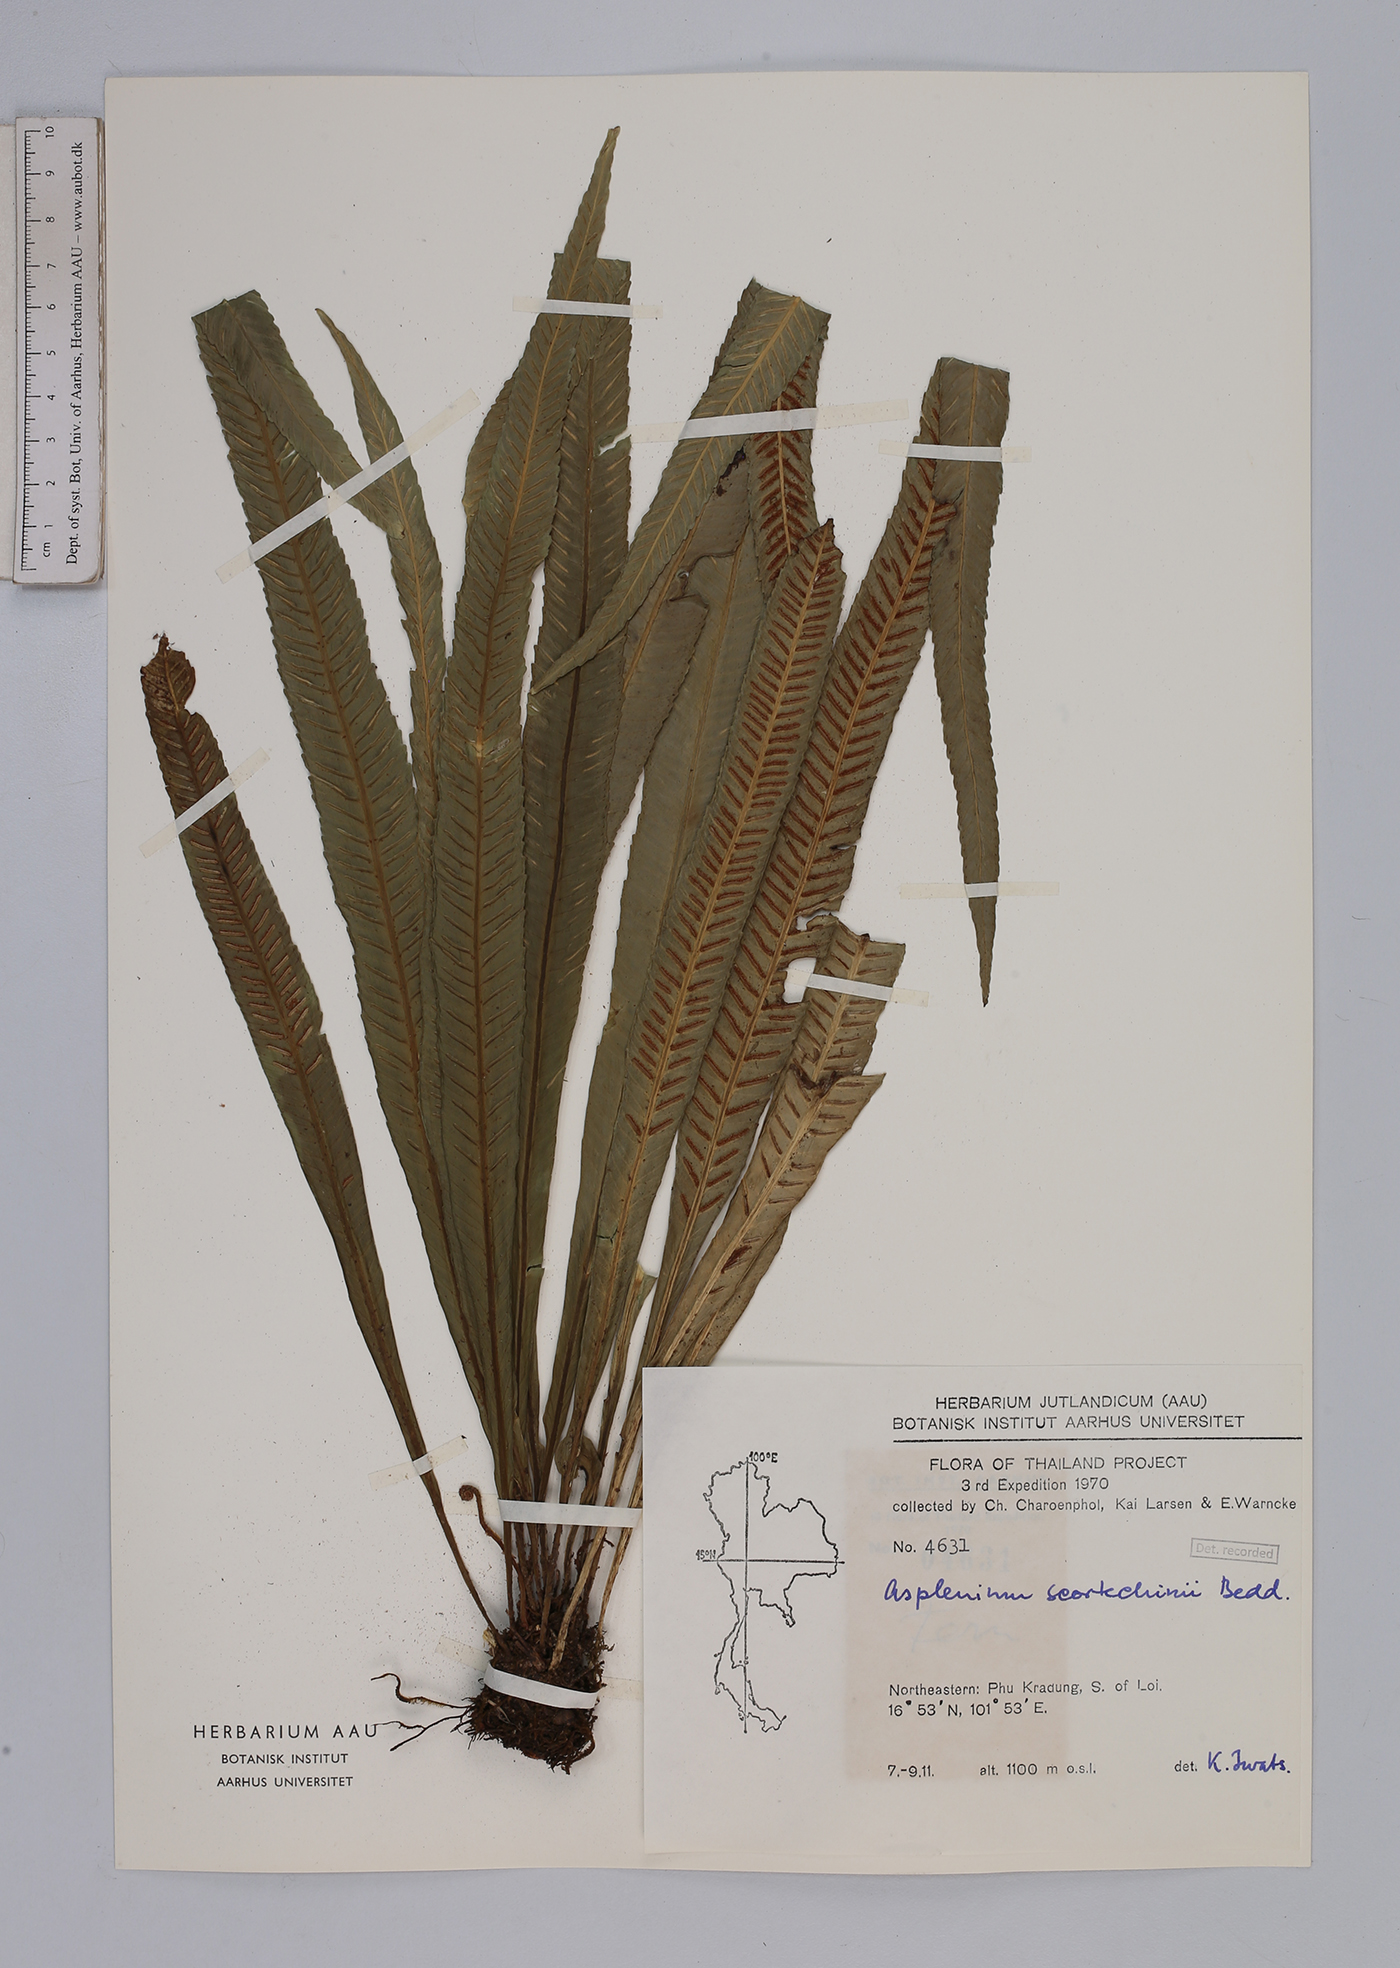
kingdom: Plantae
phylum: Tracheophyta
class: Polypodiopsida
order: Polypodiales
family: Aspleniaceae
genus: Asplenium
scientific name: Asplenium scortechinii
